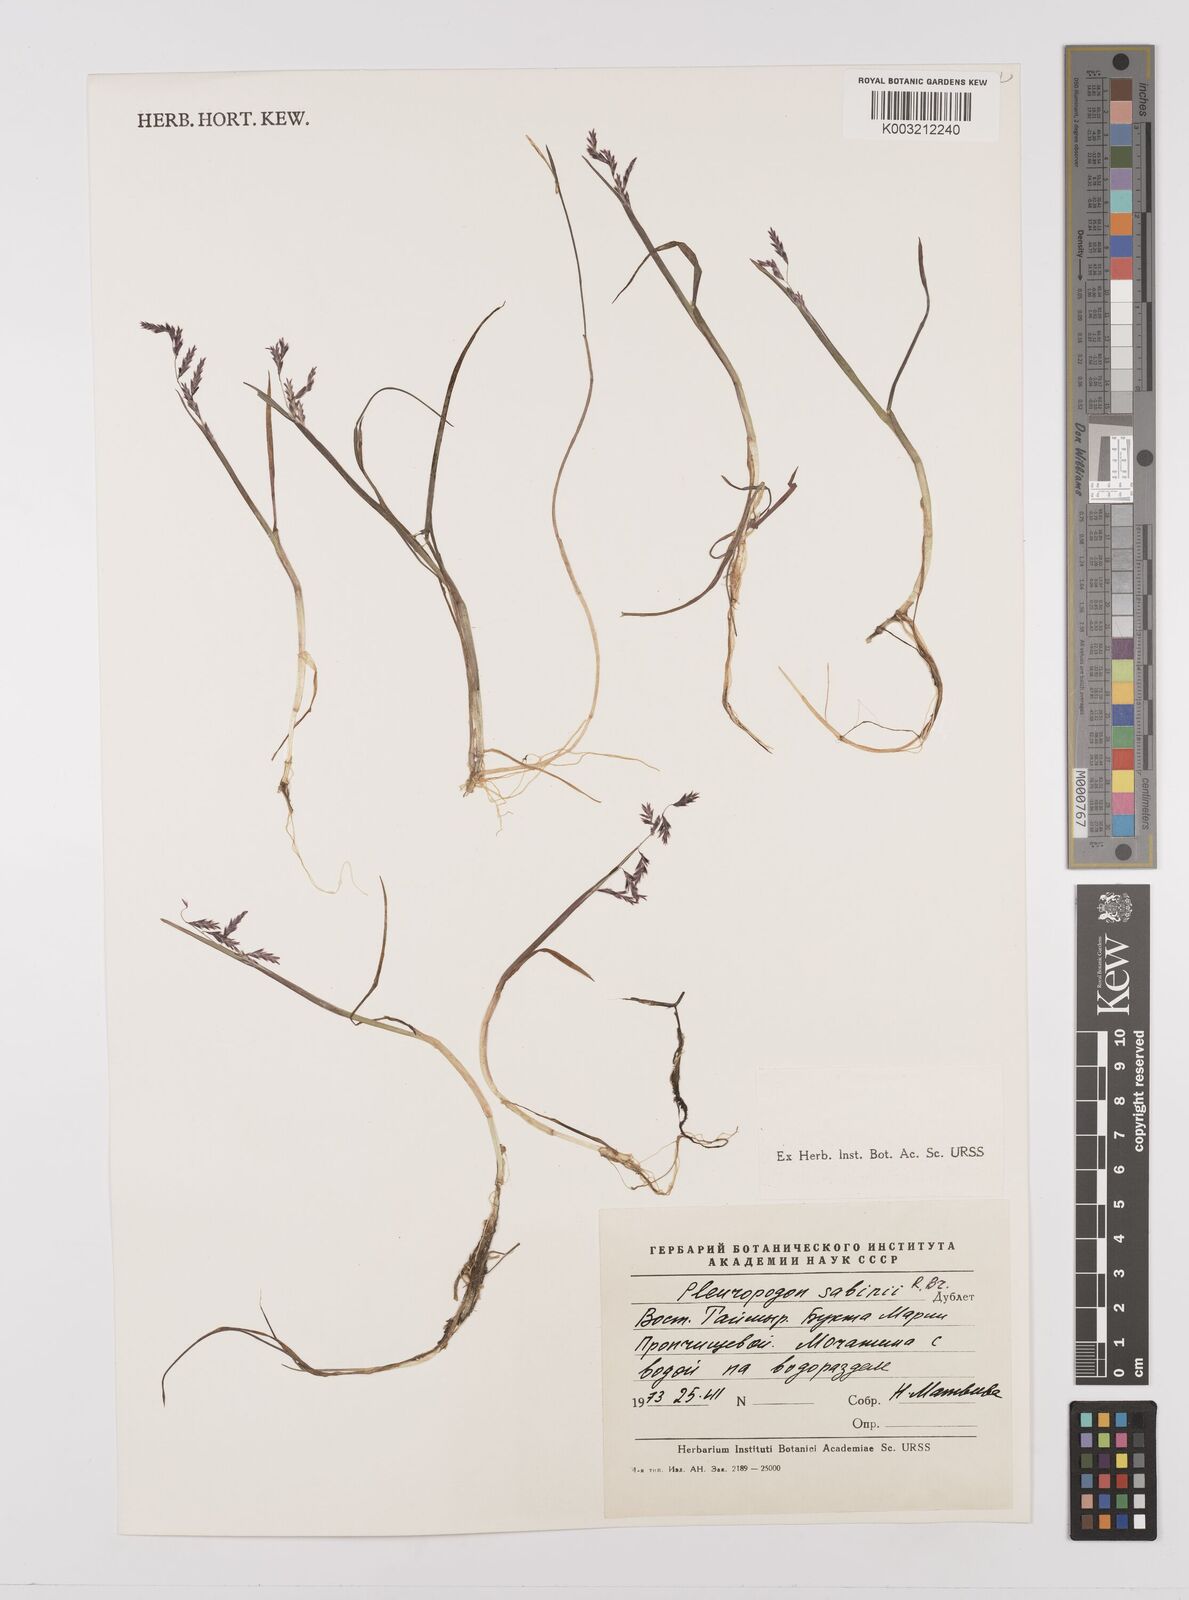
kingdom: Plantae
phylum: Tracheophyta
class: Liliopsida
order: Poales
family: Poaceae
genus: Pleuropogon
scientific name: Pleuropogon sabinei
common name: Sabine's false semaphoregrass
